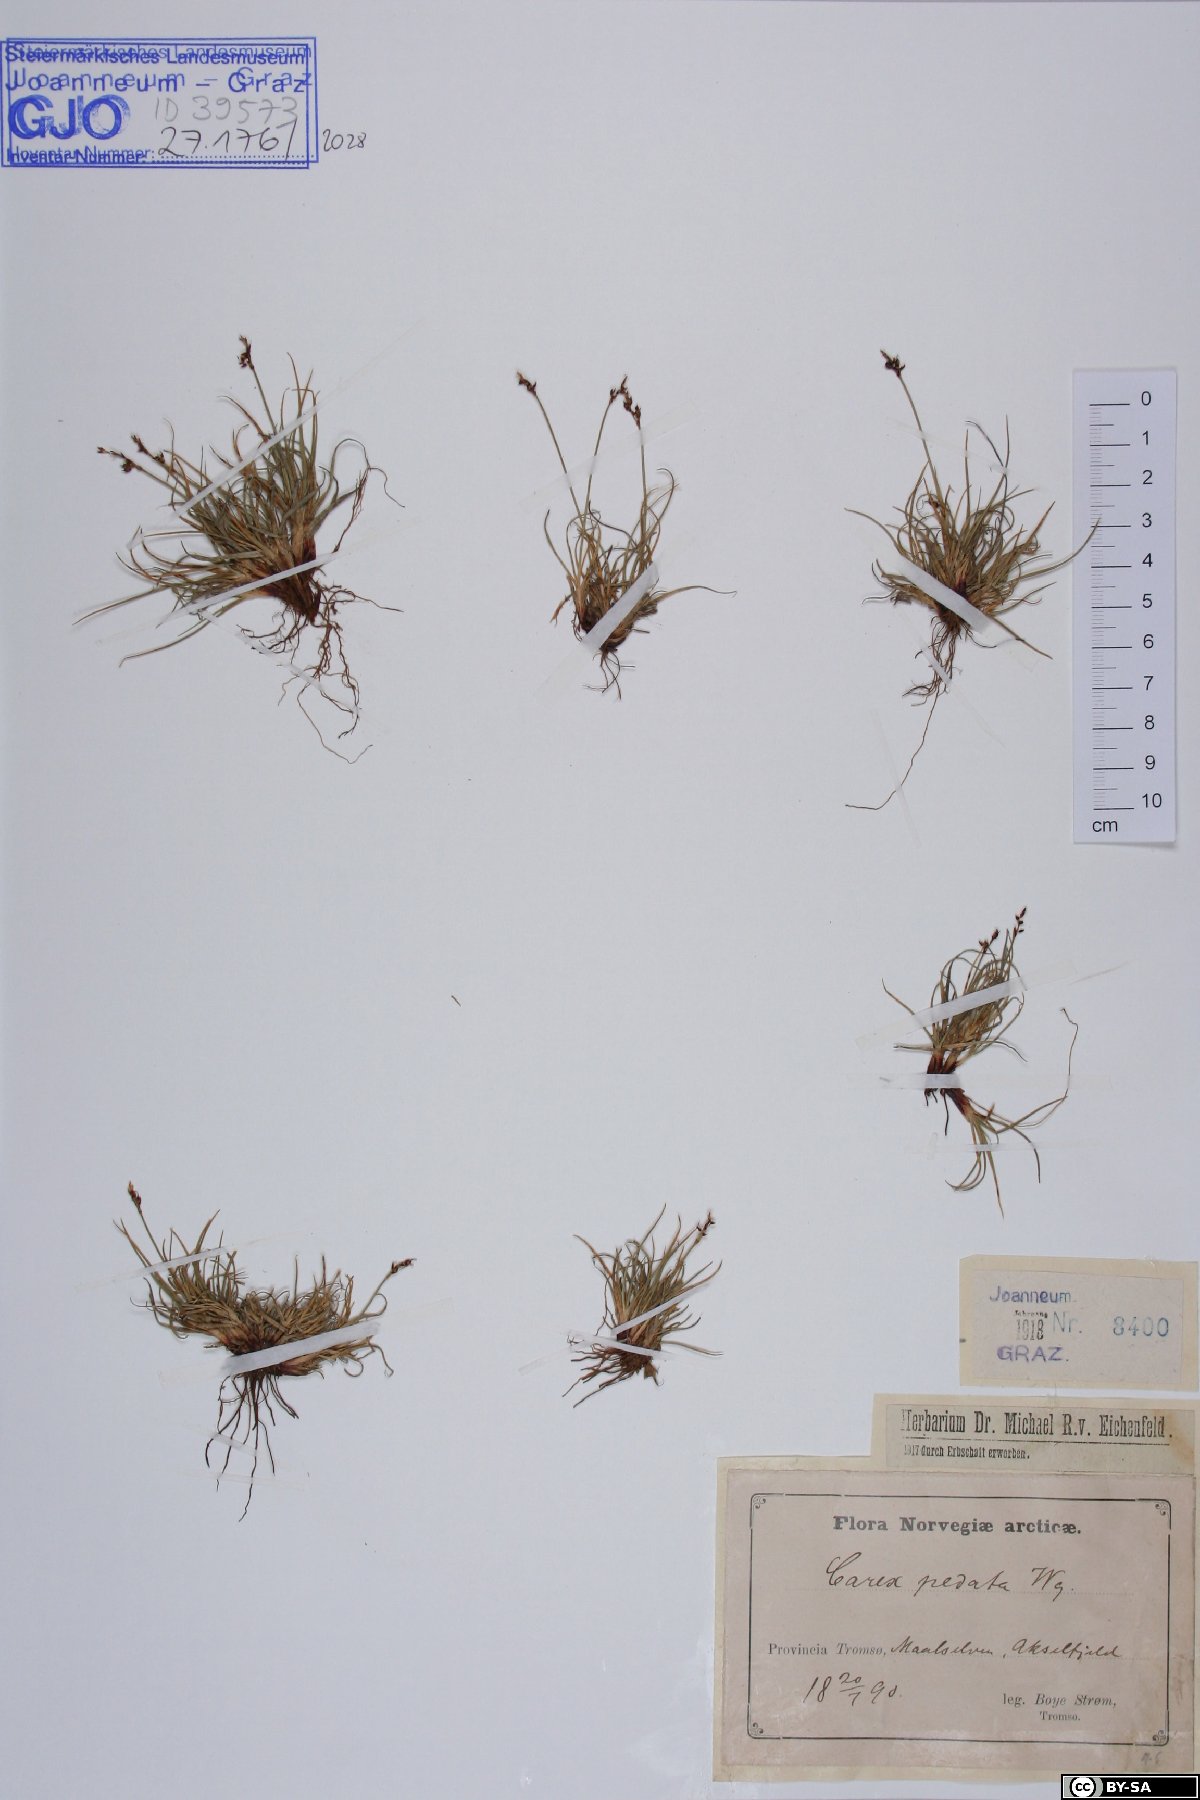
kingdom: Plantae
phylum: Tracheophyta
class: Liliopsida
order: Poales
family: Cyperaceae
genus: Carex
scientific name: Carex ornithopoda
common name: Bird's-foot sedge
